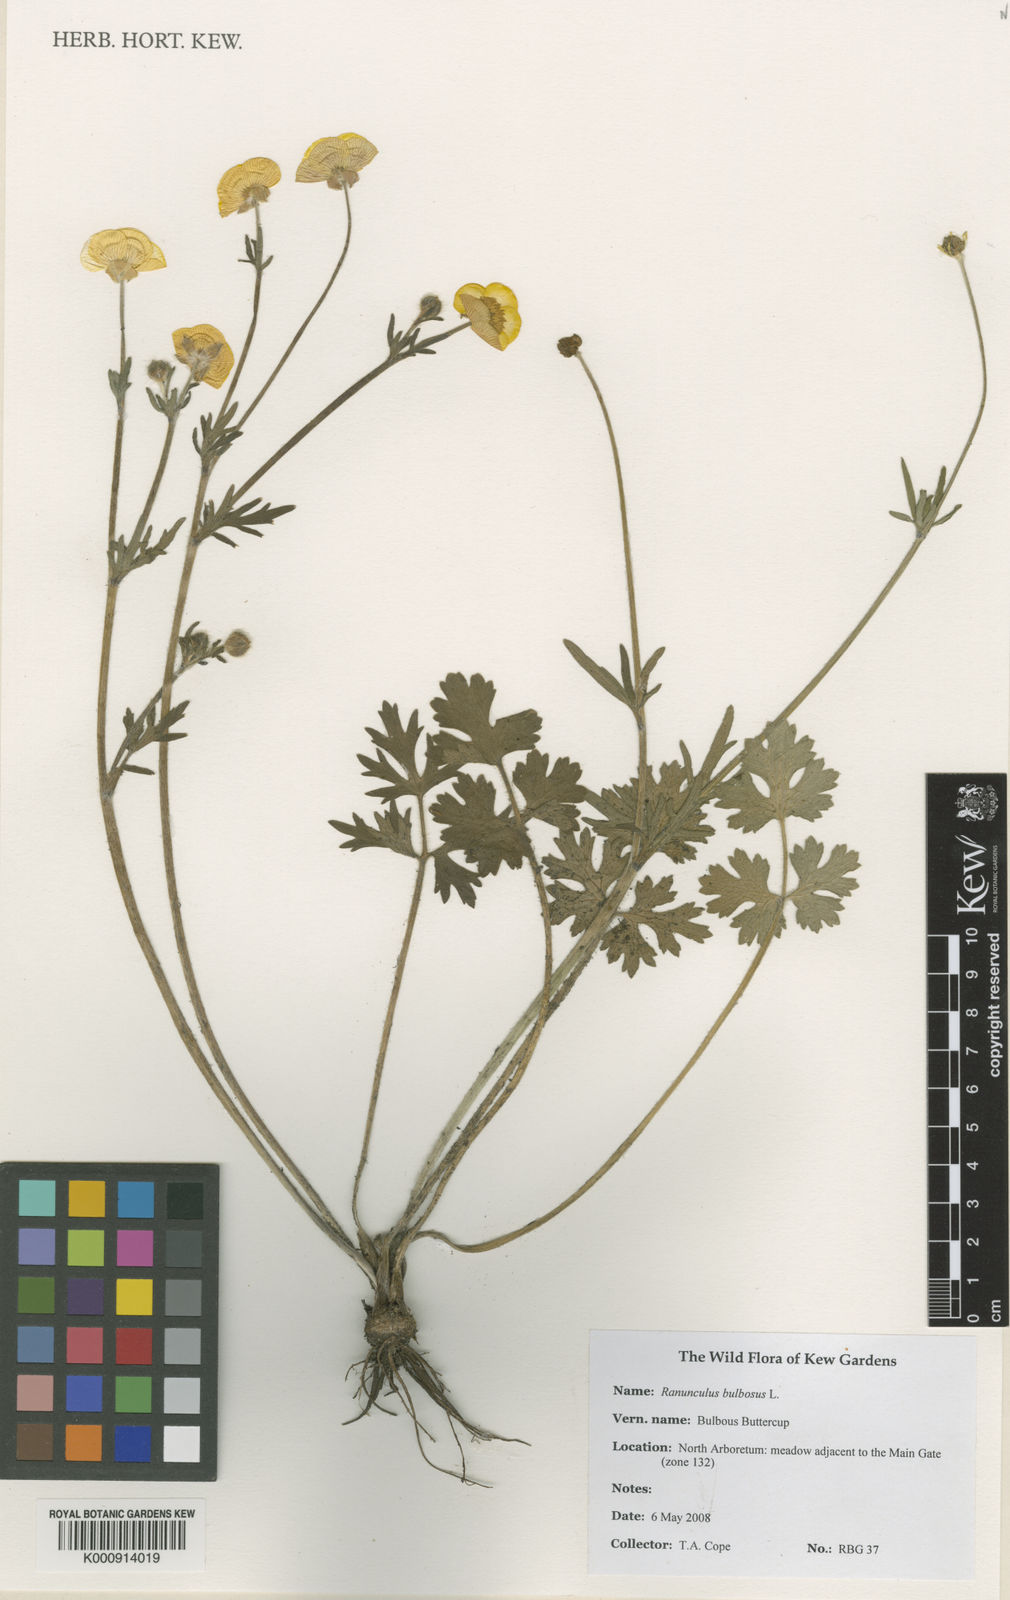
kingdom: Plantae
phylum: Tracheophyta
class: Magnoliopsida
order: Ranunculales
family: Ranunculaceae
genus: Ranunculus
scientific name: Ranunculus bulbosus
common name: Bulbous buttercup
